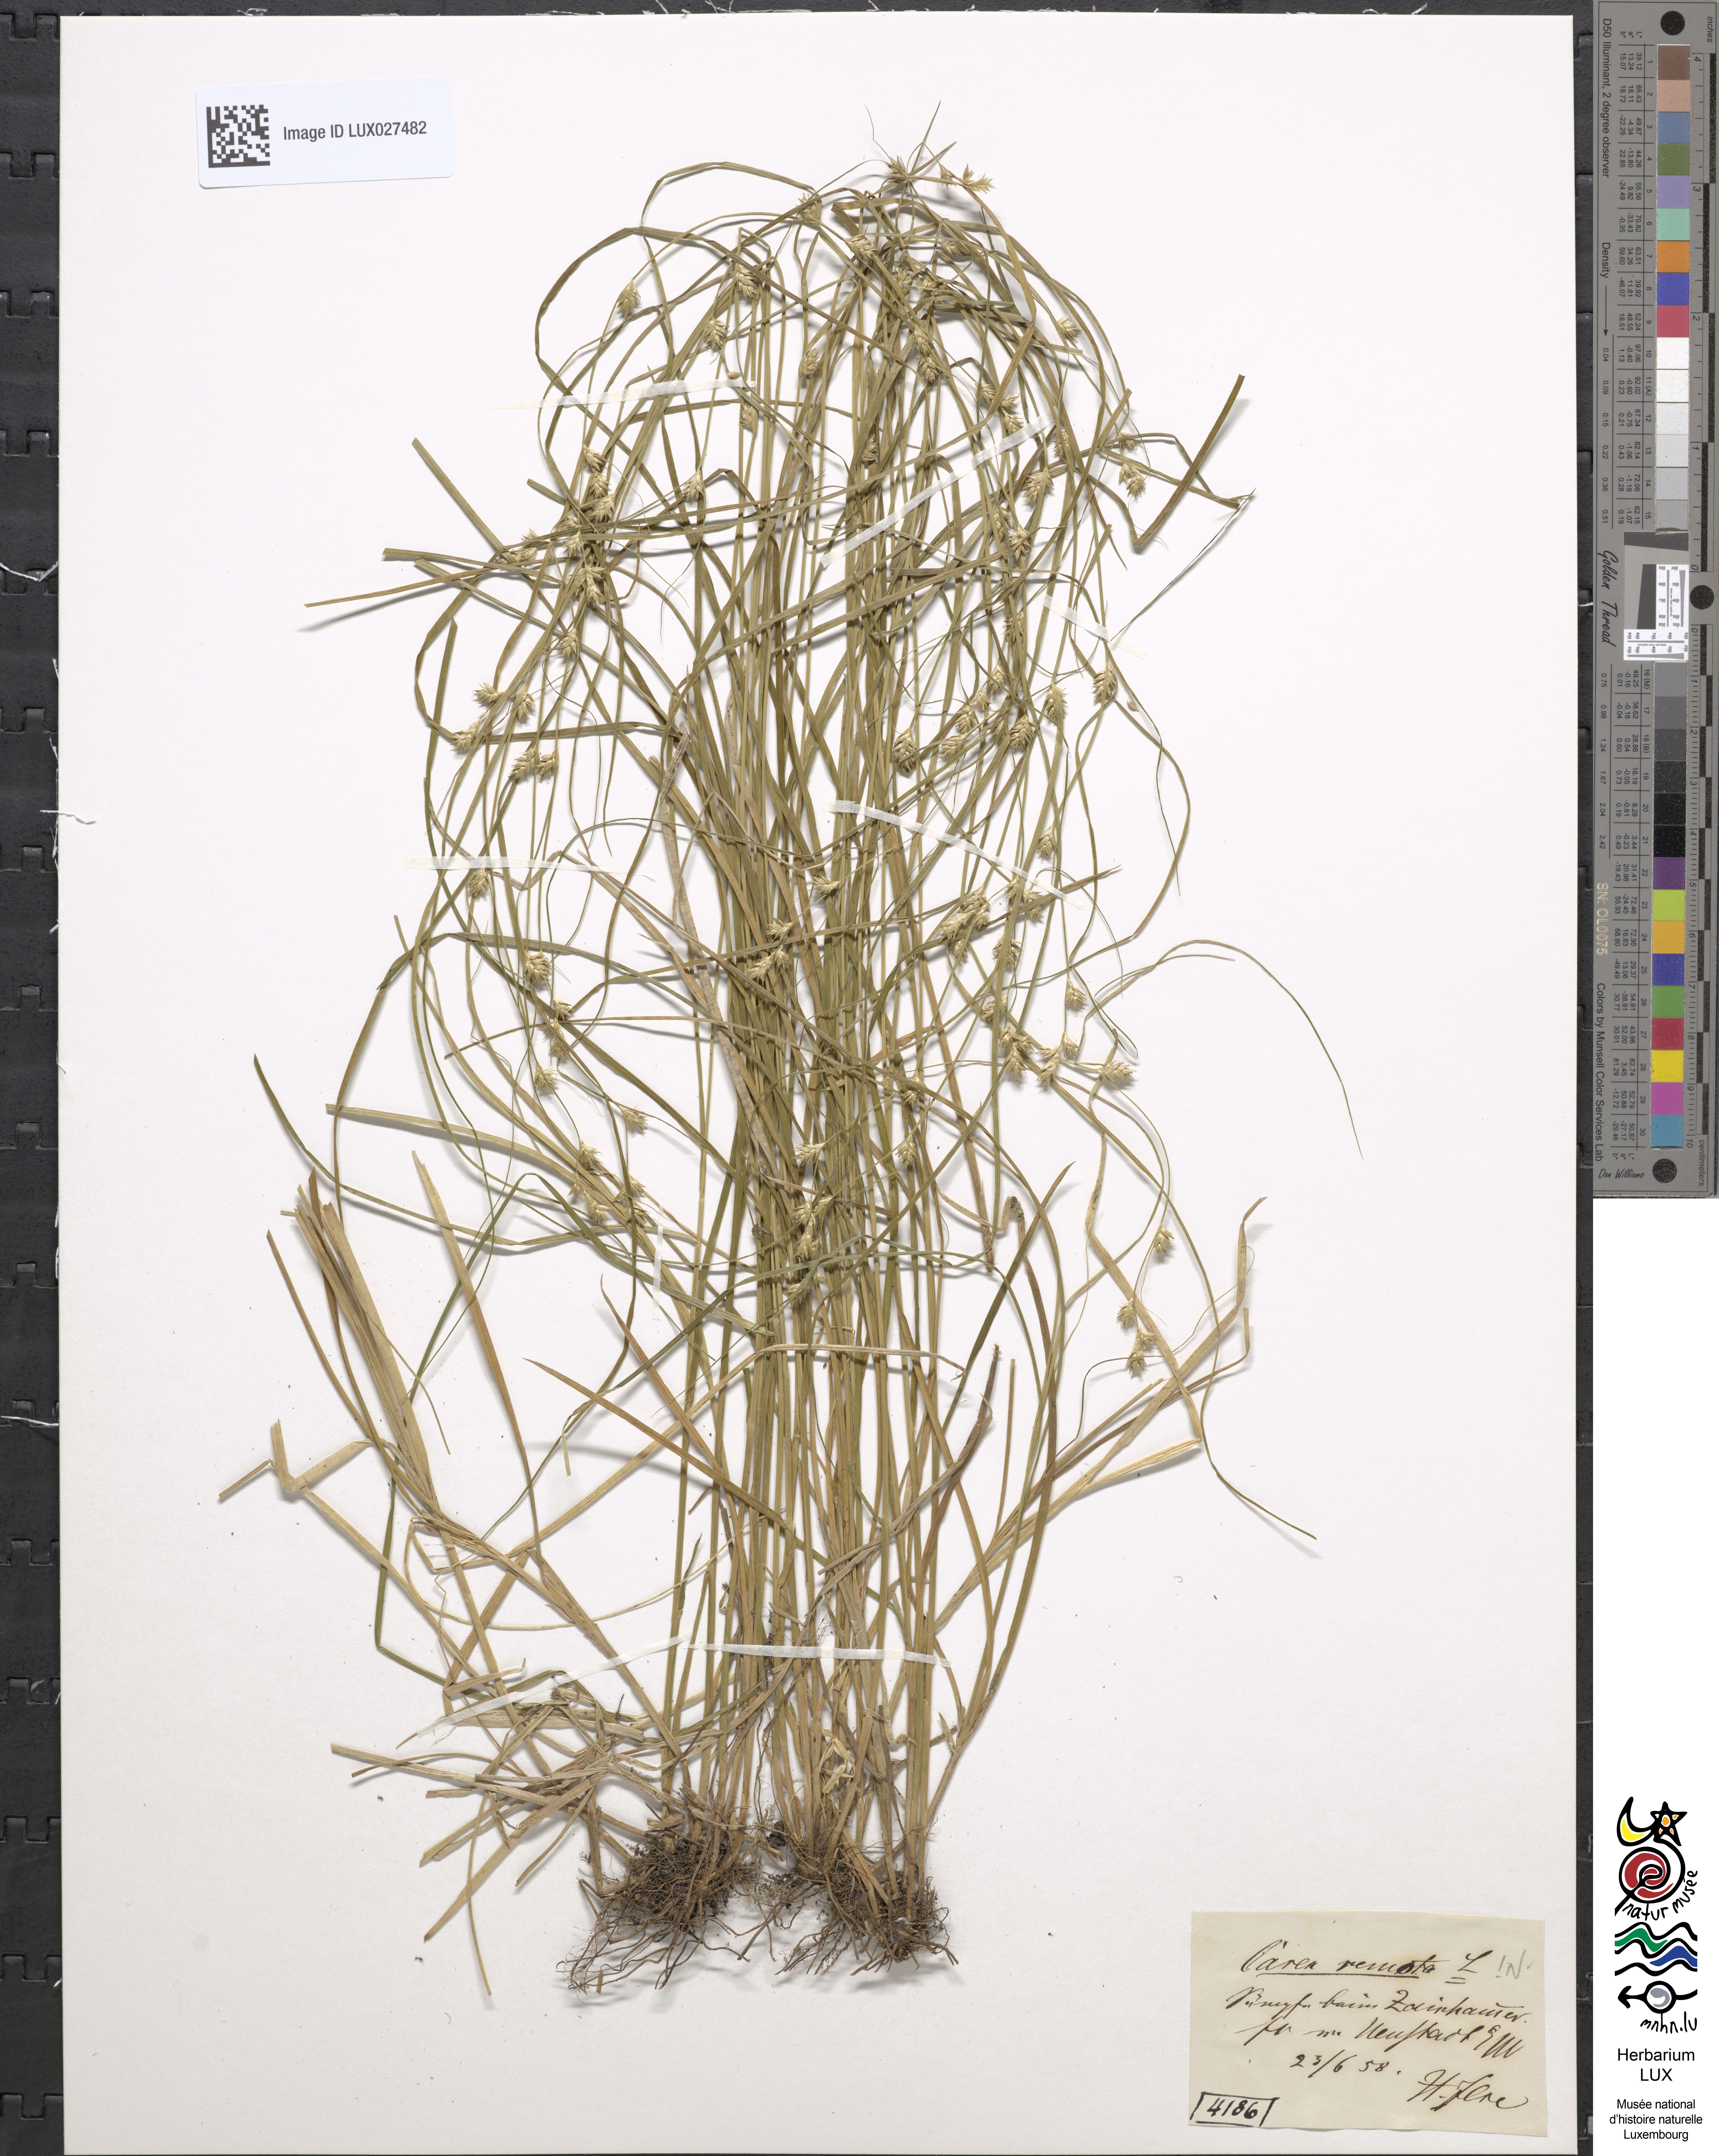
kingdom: Plantae
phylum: Tracheophyta
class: Liliopsida
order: Poales
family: Cyperaceae
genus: Carex
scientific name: Carex remota
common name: Remote sedge
